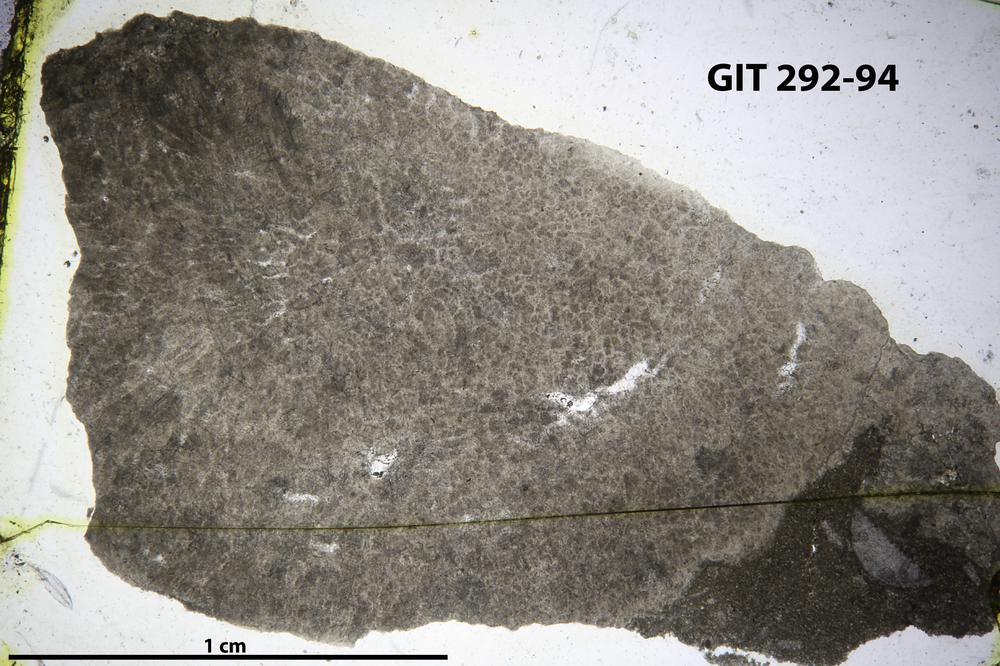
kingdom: Animalia
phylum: Porifera
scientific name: Porifera
